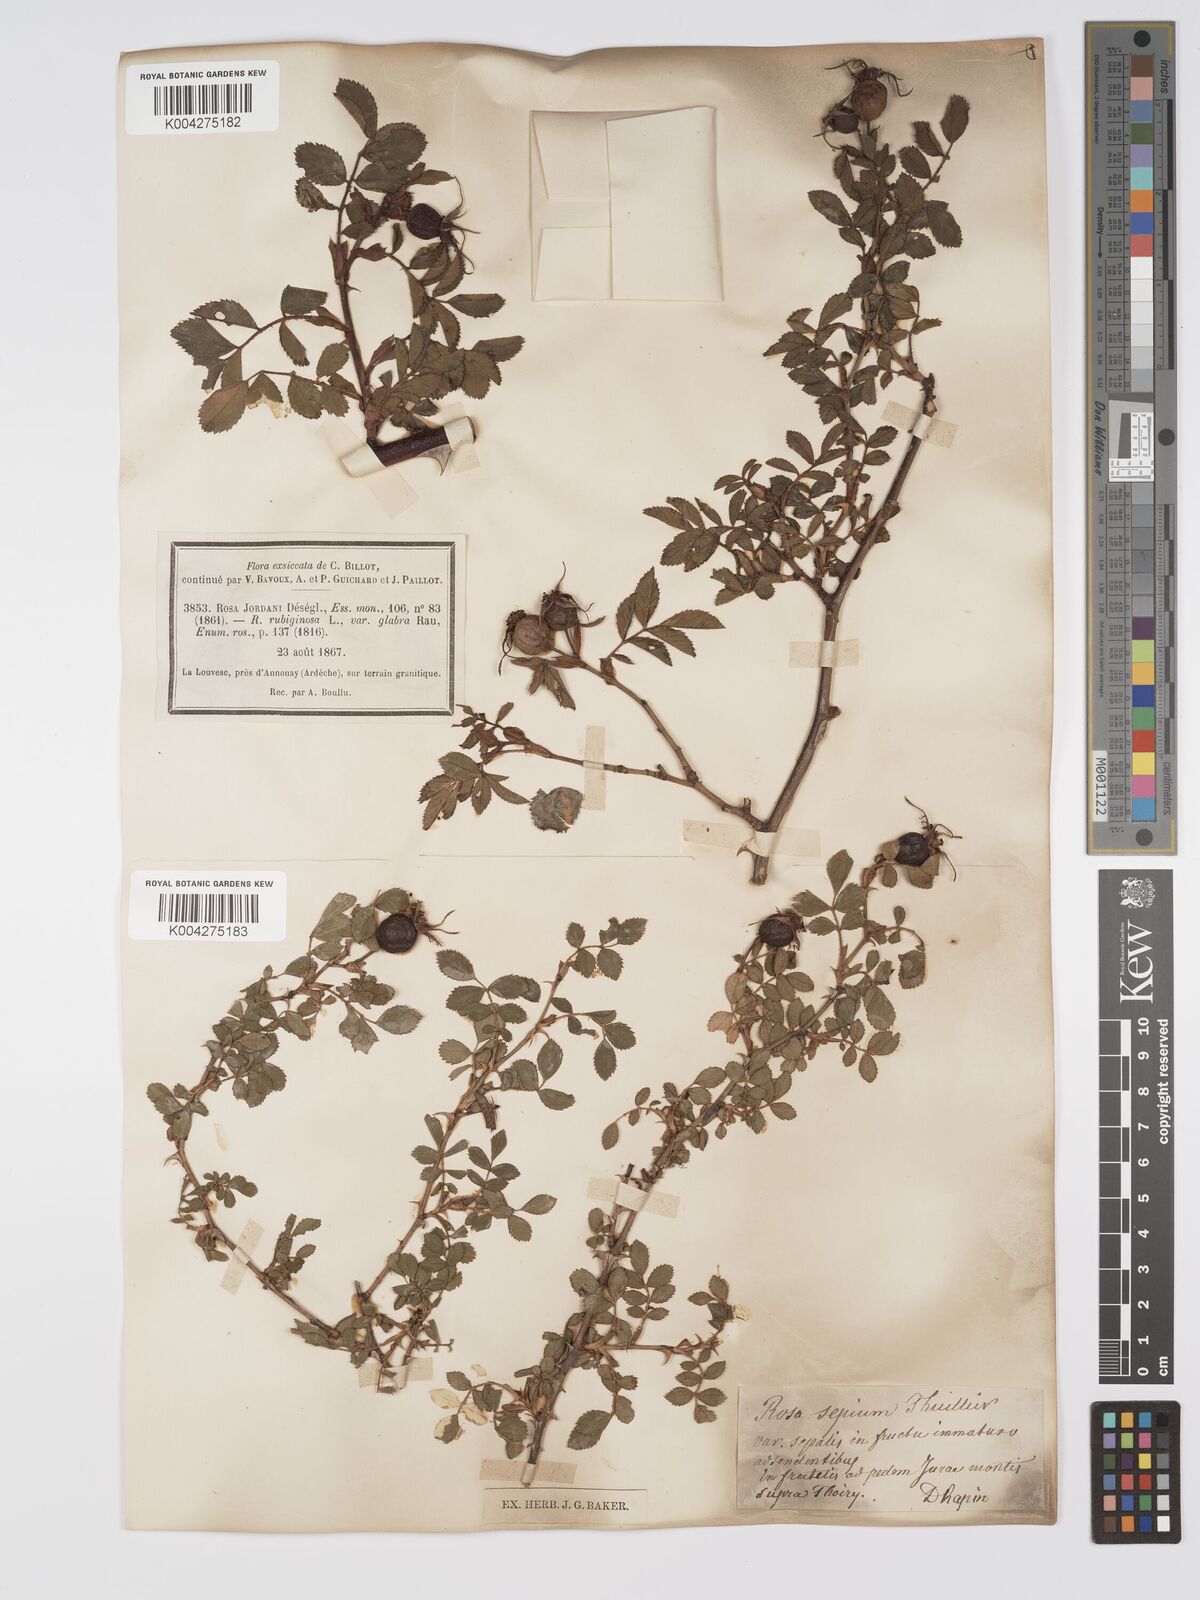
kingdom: Plantae
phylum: Tracheophyta
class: Magnoliopsida
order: Rosales
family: Rosaceae
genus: Rosa
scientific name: Rosa
